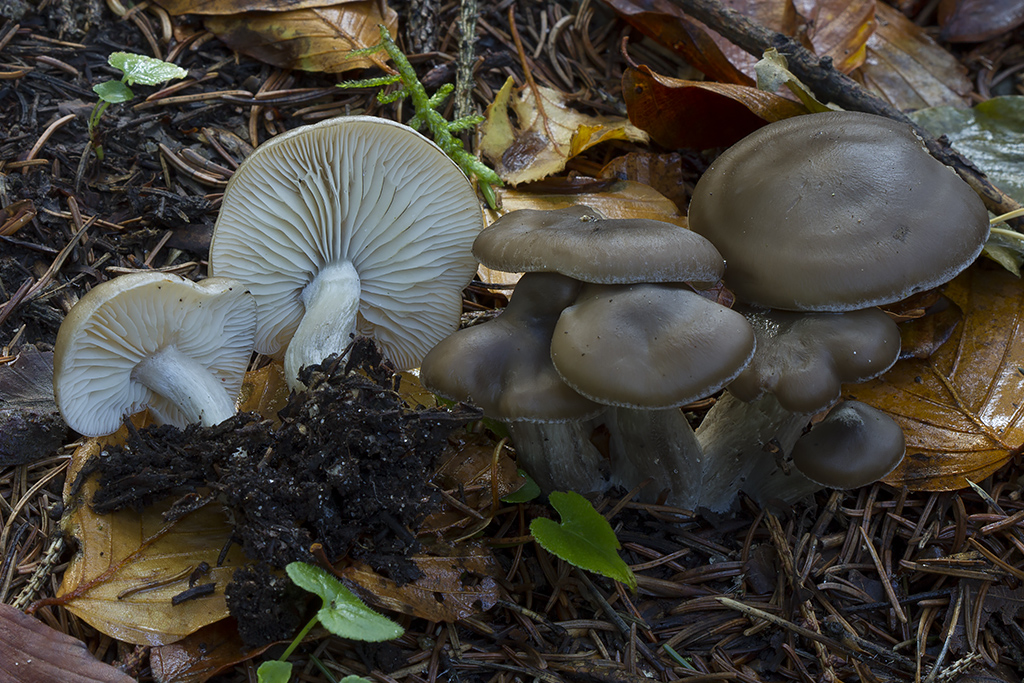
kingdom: Fungi
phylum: Basidiomycota
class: Agaricomycetes
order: Agaricales
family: Lyophyllaceae
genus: Lyophyllum
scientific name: Lyophyllum decastes
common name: røggrå gråblad
